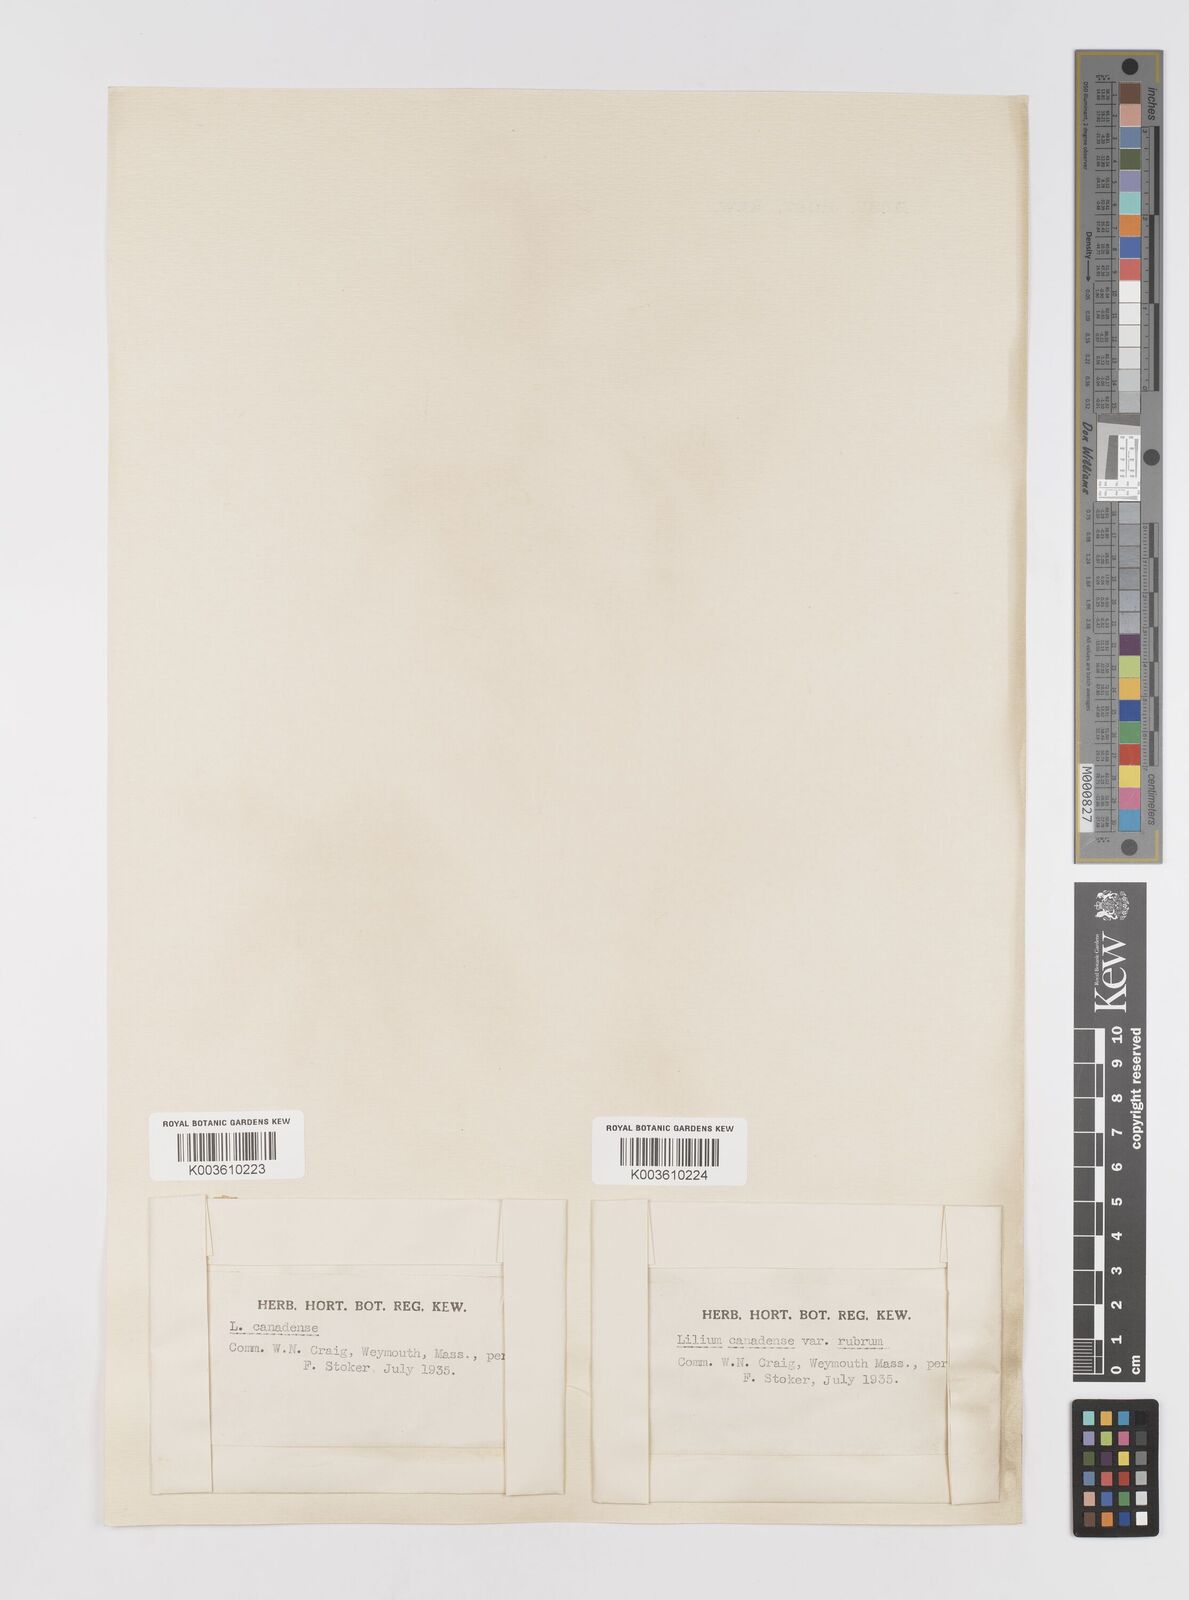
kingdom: Plantae
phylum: Tracheophyta
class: Liliopsida
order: Liliales
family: Liliaceae
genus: Lilium
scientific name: Lilium canadense
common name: Canada lily
